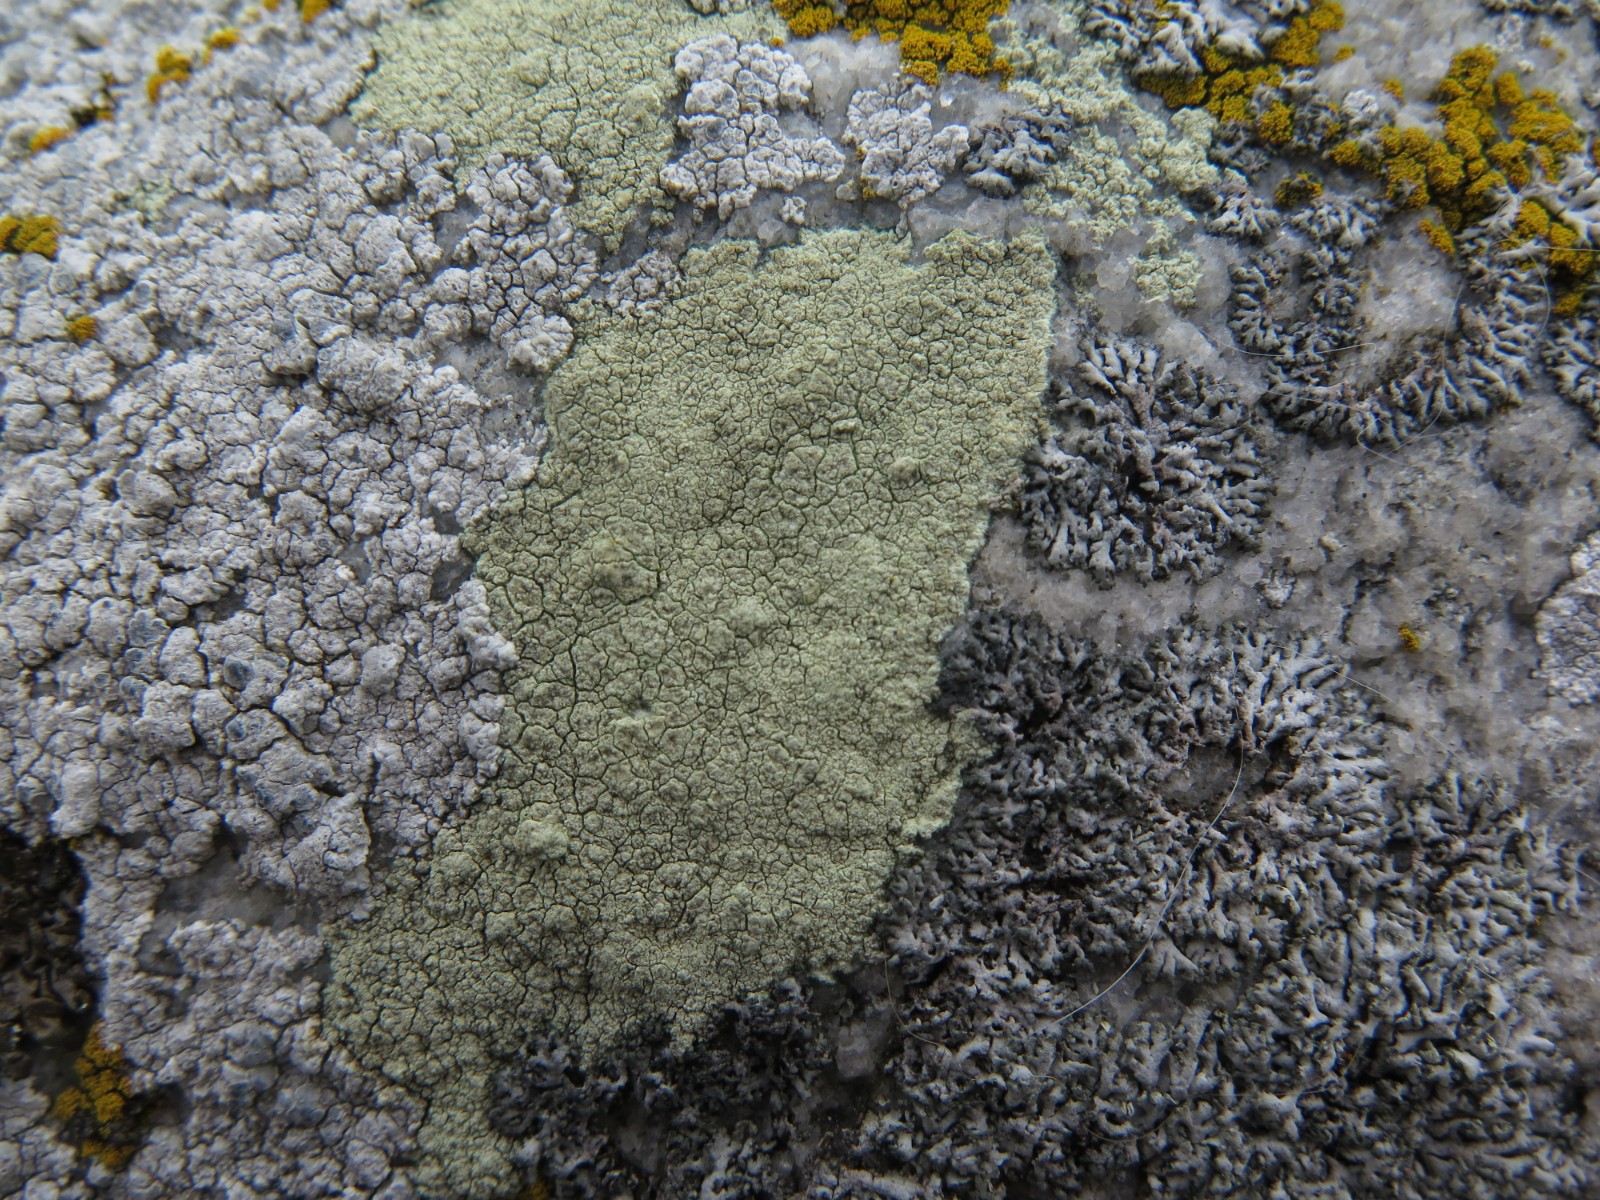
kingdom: Fungi
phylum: Ascomycota
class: Lecanoromycetes
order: Lecanorales
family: Lecanoraceae
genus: Glaucomaria
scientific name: Glaucomaria sulphurea
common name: svovlgul kantskivelav
